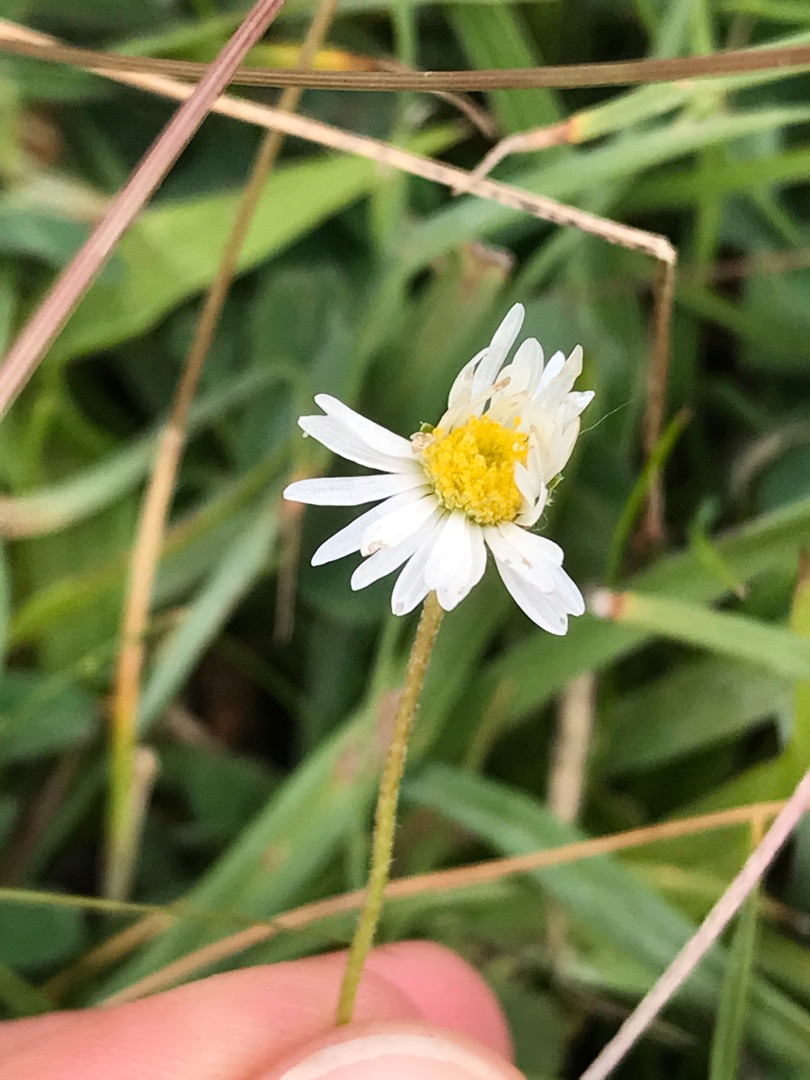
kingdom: Plantae
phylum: Tracheophyta
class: Magnoliopsida
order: Asterales
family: Asteraceae
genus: Bellis
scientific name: Bellis perennis
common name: Tusindfryd
